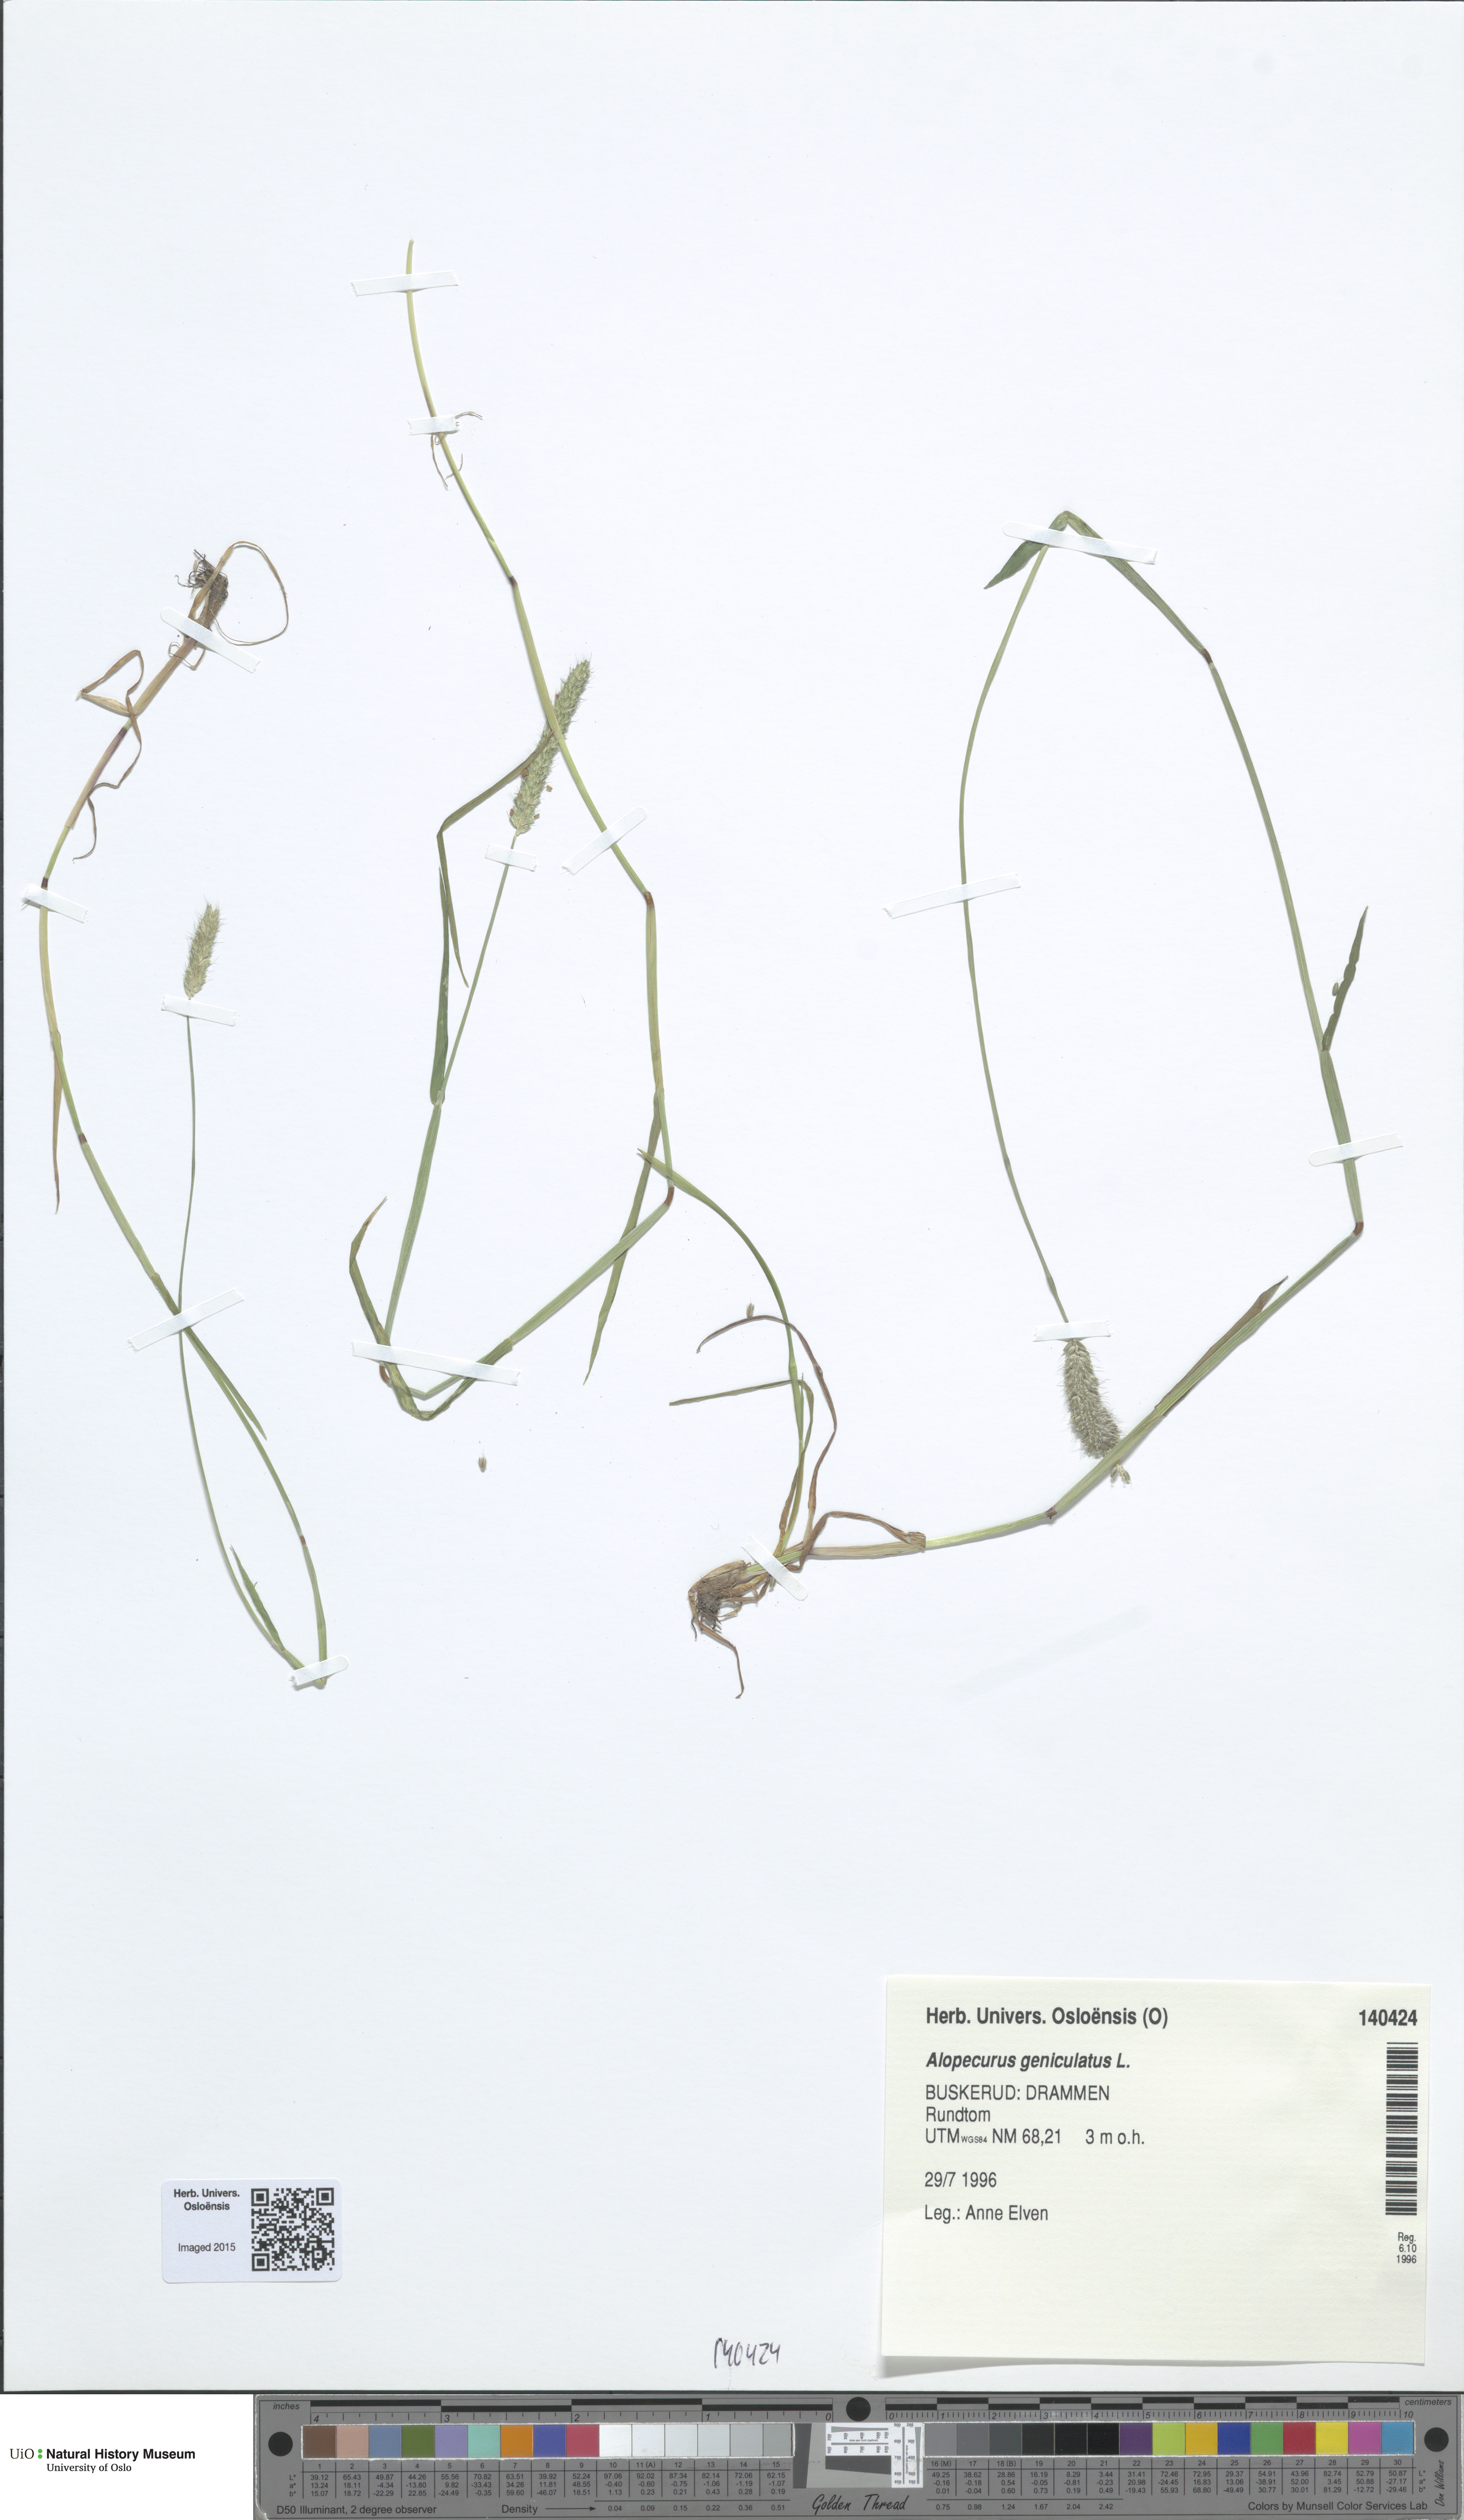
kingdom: Plantae
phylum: Tracheophyta
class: Liliopsida
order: Poales
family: Poaceae
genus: Alopecurus
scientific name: Alopecurus geniculatus
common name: Water foxtail
